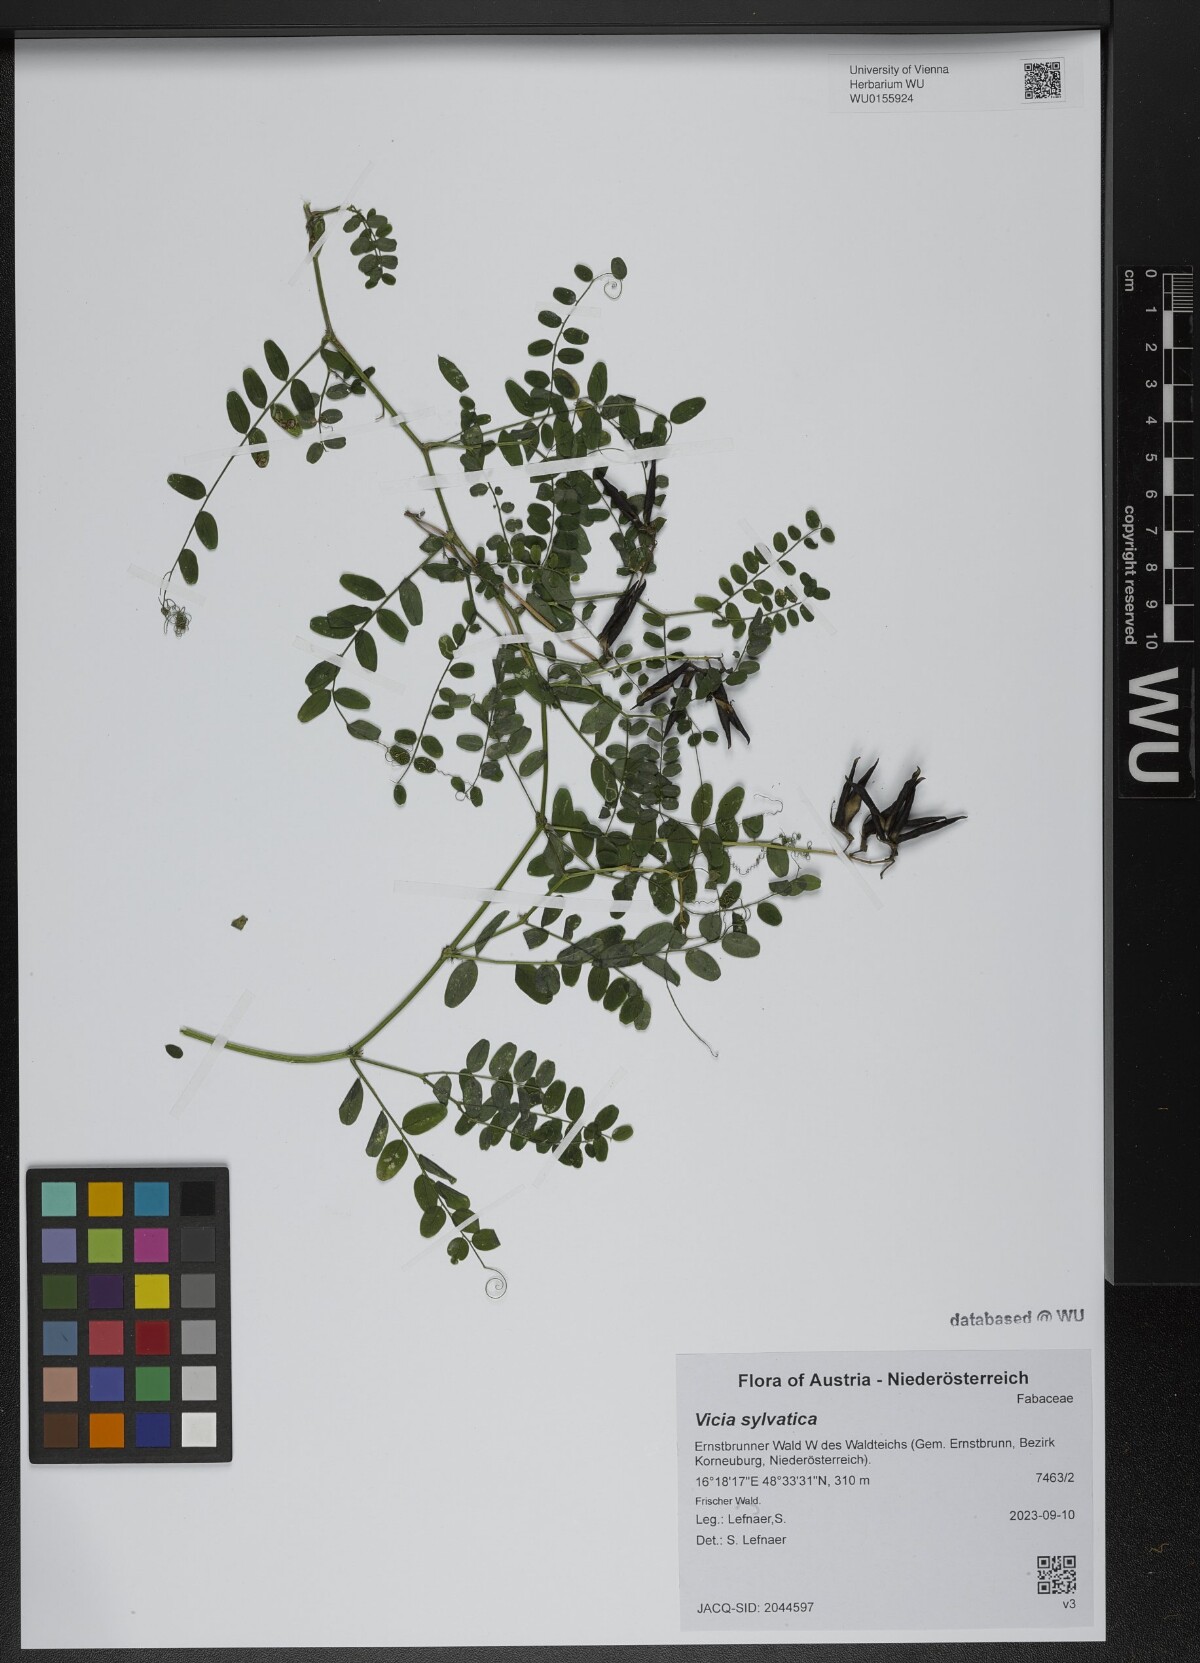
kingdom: Plantae
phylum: Tracheophyta
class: Magnoliopsida
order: Fabales
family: Fabaceae
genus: Vicia
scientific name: Vicia sylvatica
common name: Wood vetch
